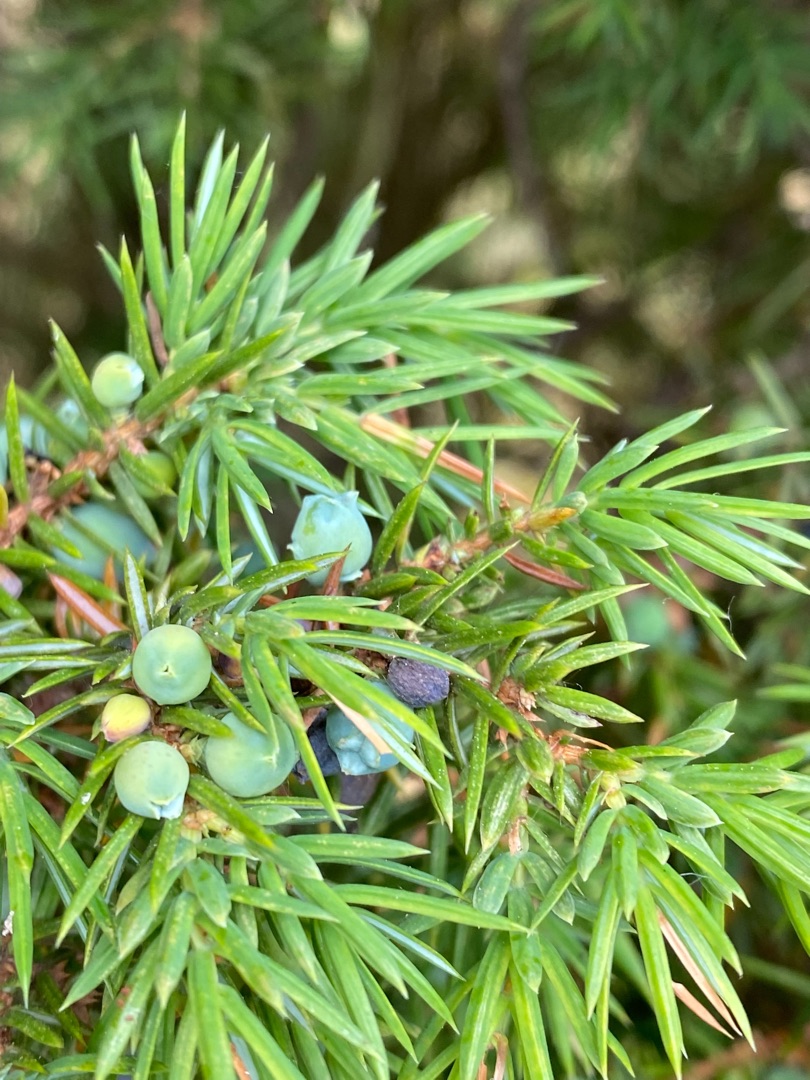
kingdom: Plantae
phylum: Tracheophyta
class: Pinopsida
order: Pinales
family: Cupressaceae
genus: Juniperus
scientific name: Juniperus communis
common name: Almindelig ene
